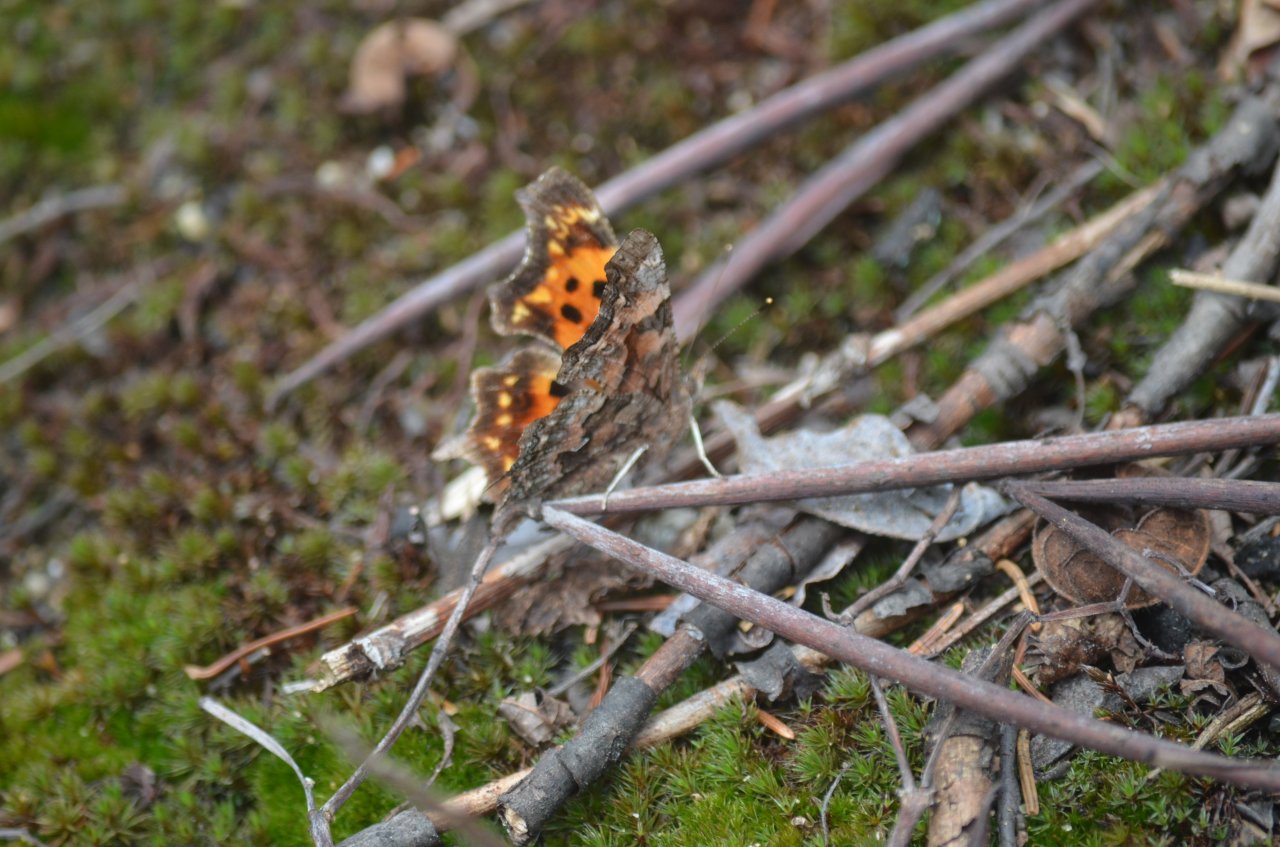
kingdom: Animalia
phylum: Arthropoda
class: Insecta
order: Lepidoptera
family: Nymphalidae
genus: Polygonia
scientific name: Polygonia faunus
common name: Green Comma
